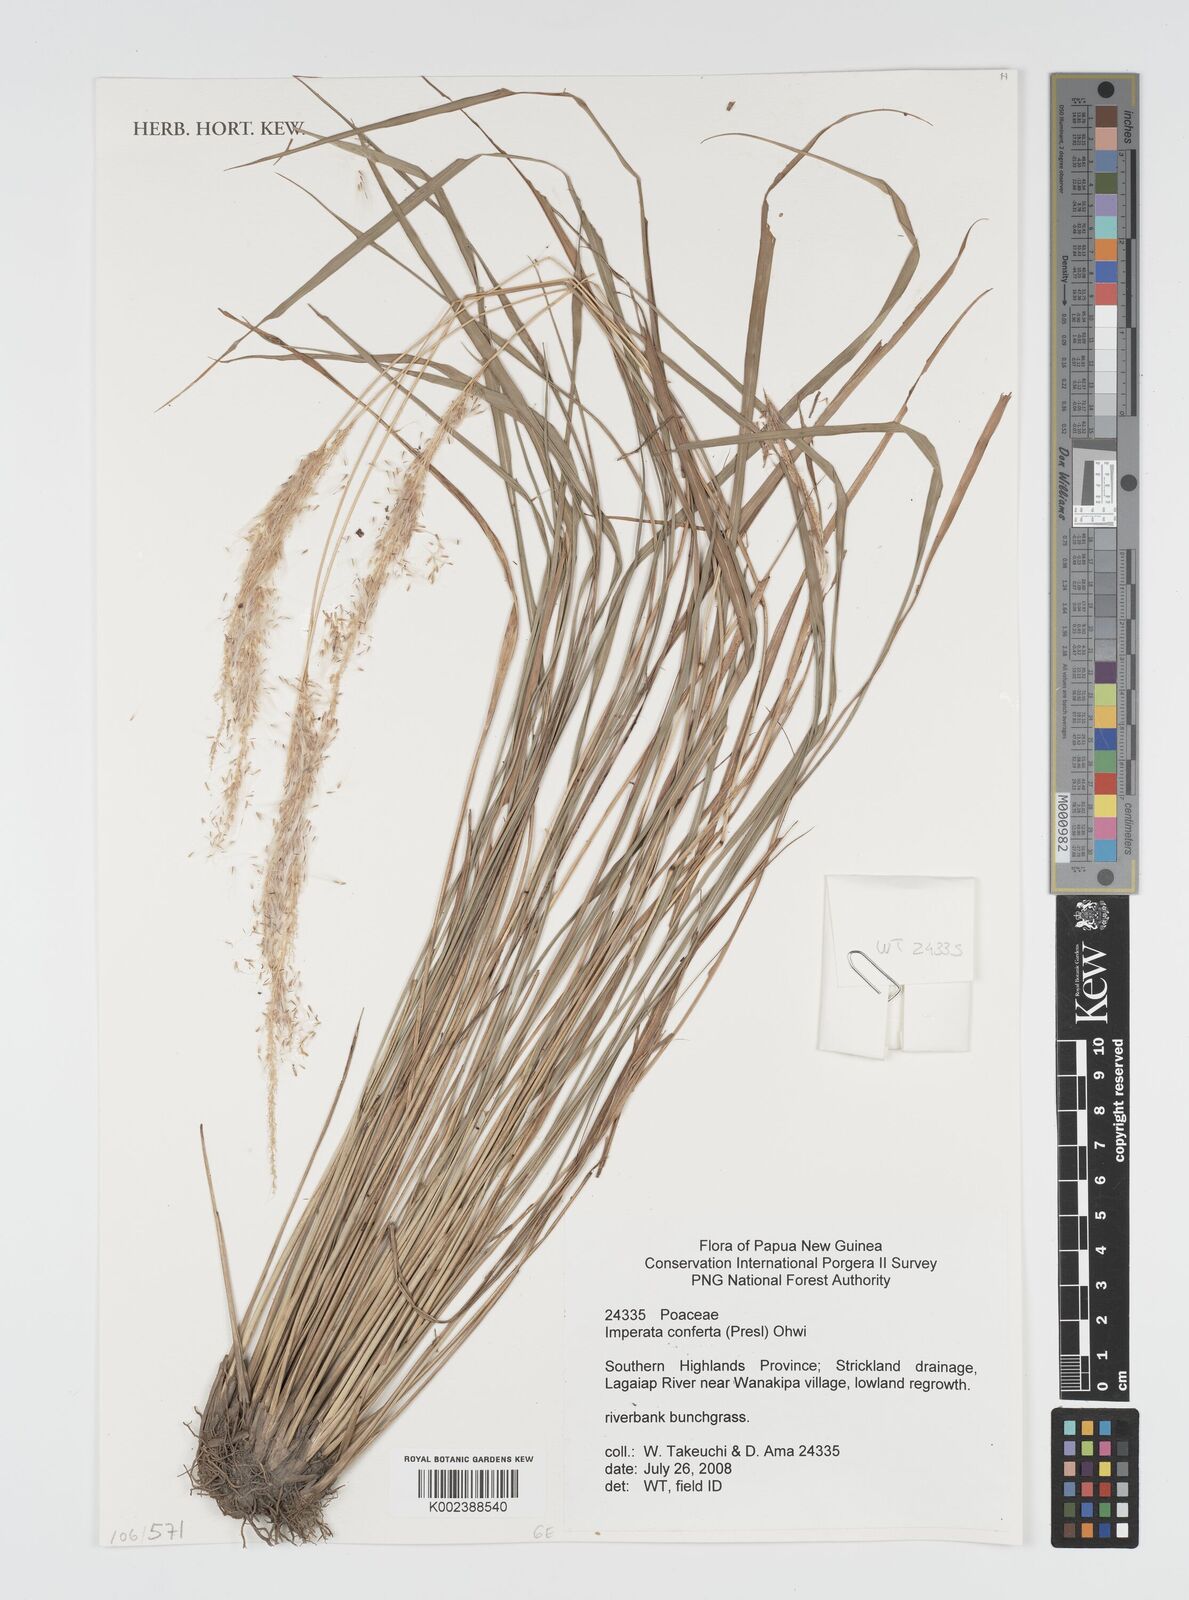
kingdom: Plantae
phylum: Tracheophyta
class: Liliopsida
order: Poales
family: Poaceae
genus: Imperata
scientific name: Imperata conferta
